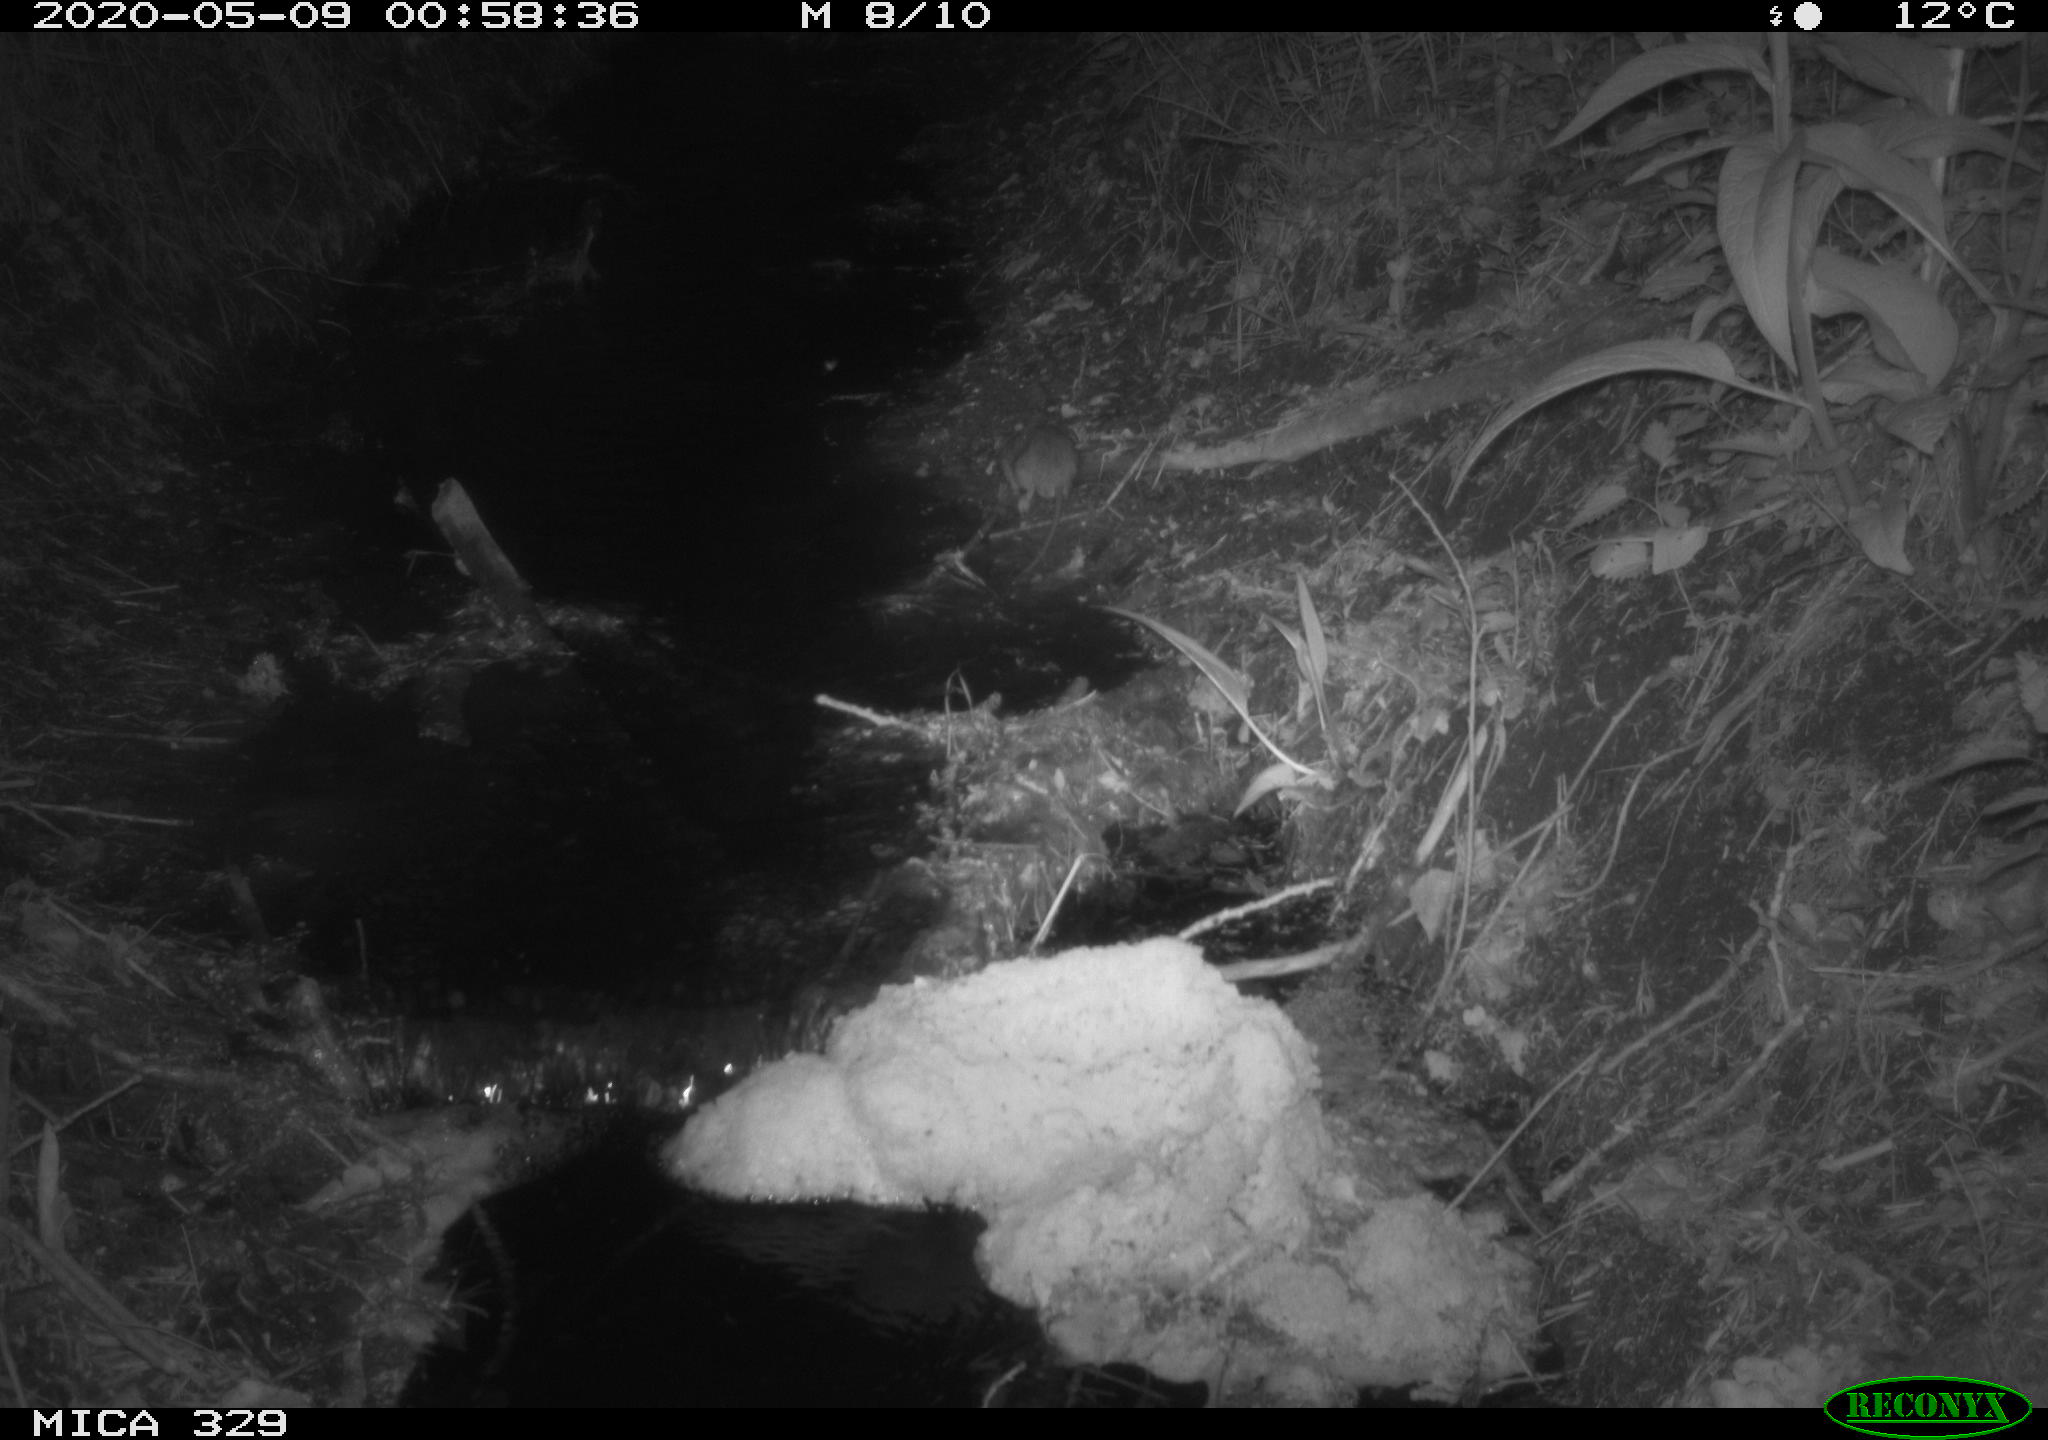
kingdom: Animalia
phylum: Chordata
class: Mammalia
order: Rodentia
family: Muridae
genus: Rattus
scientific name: Rattus norvegicus
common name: Brown rat
